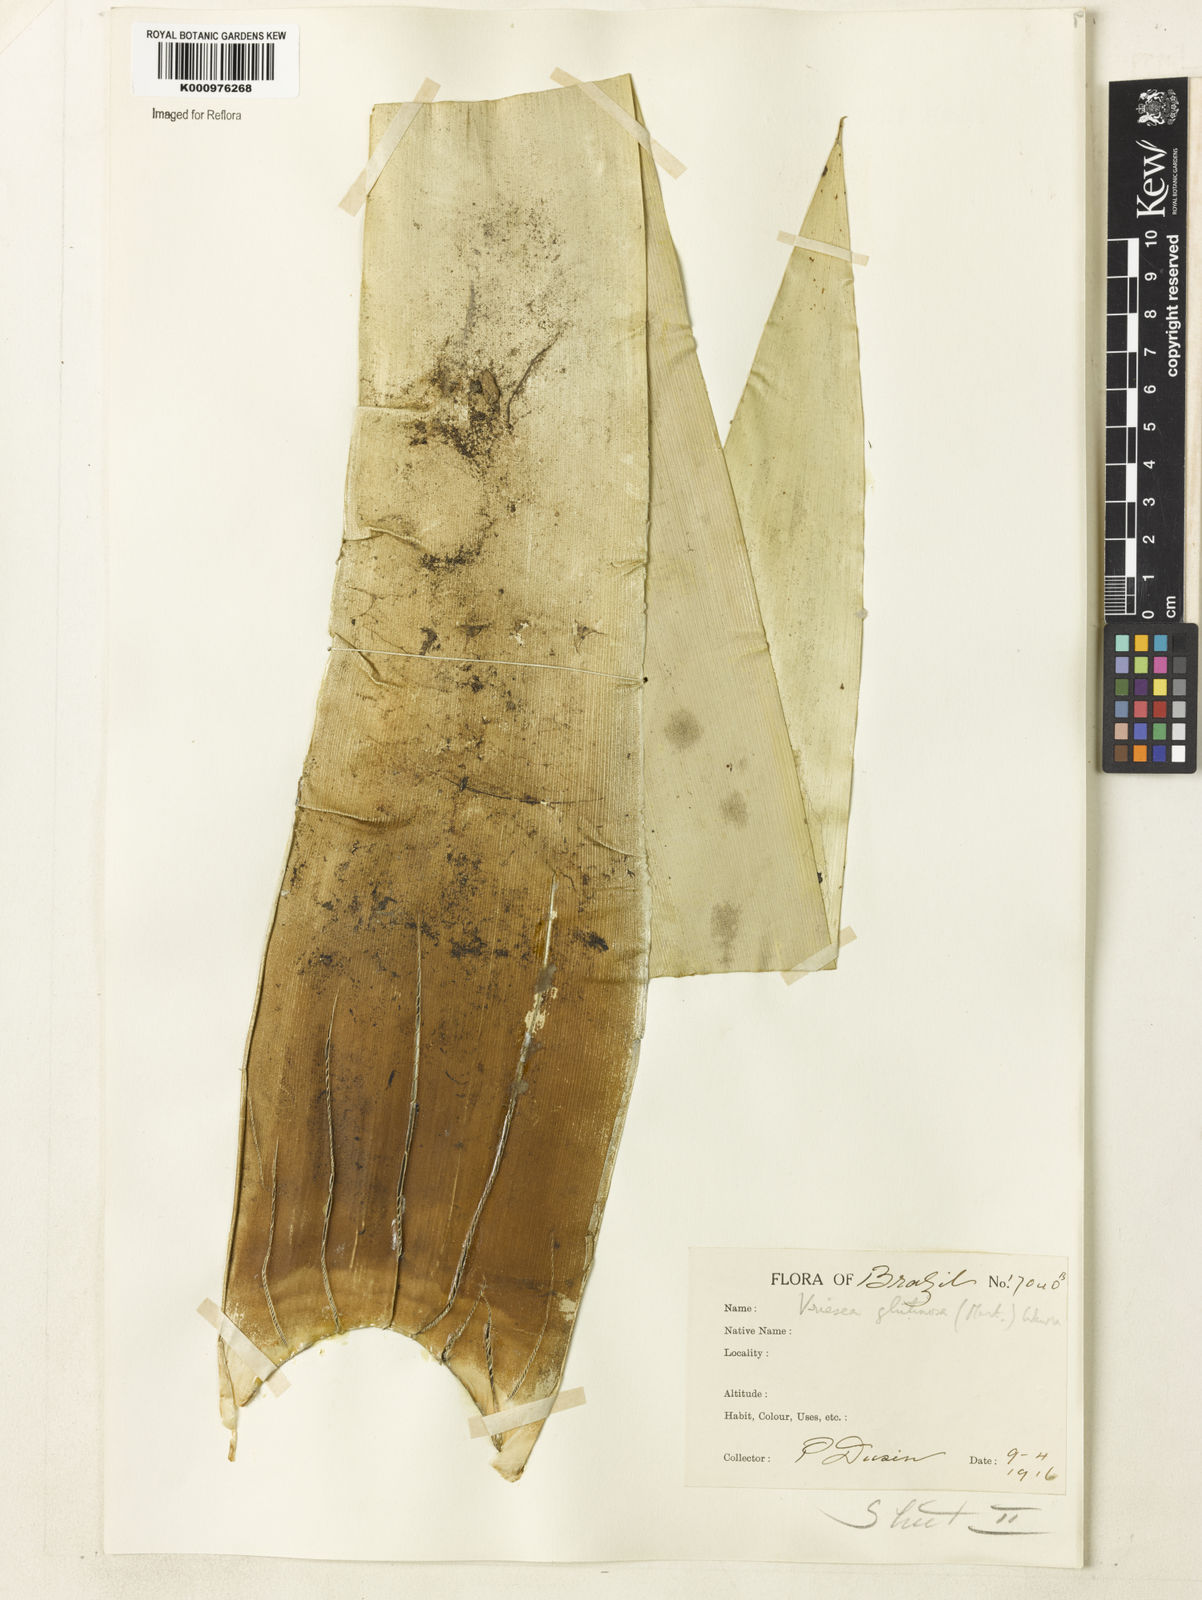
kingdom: Plantae
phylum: Tracheophyta
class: Liliopsida
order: Poales
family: Bromeliaceae
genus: Vriesea
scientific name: Vriesea neoglutinosa
